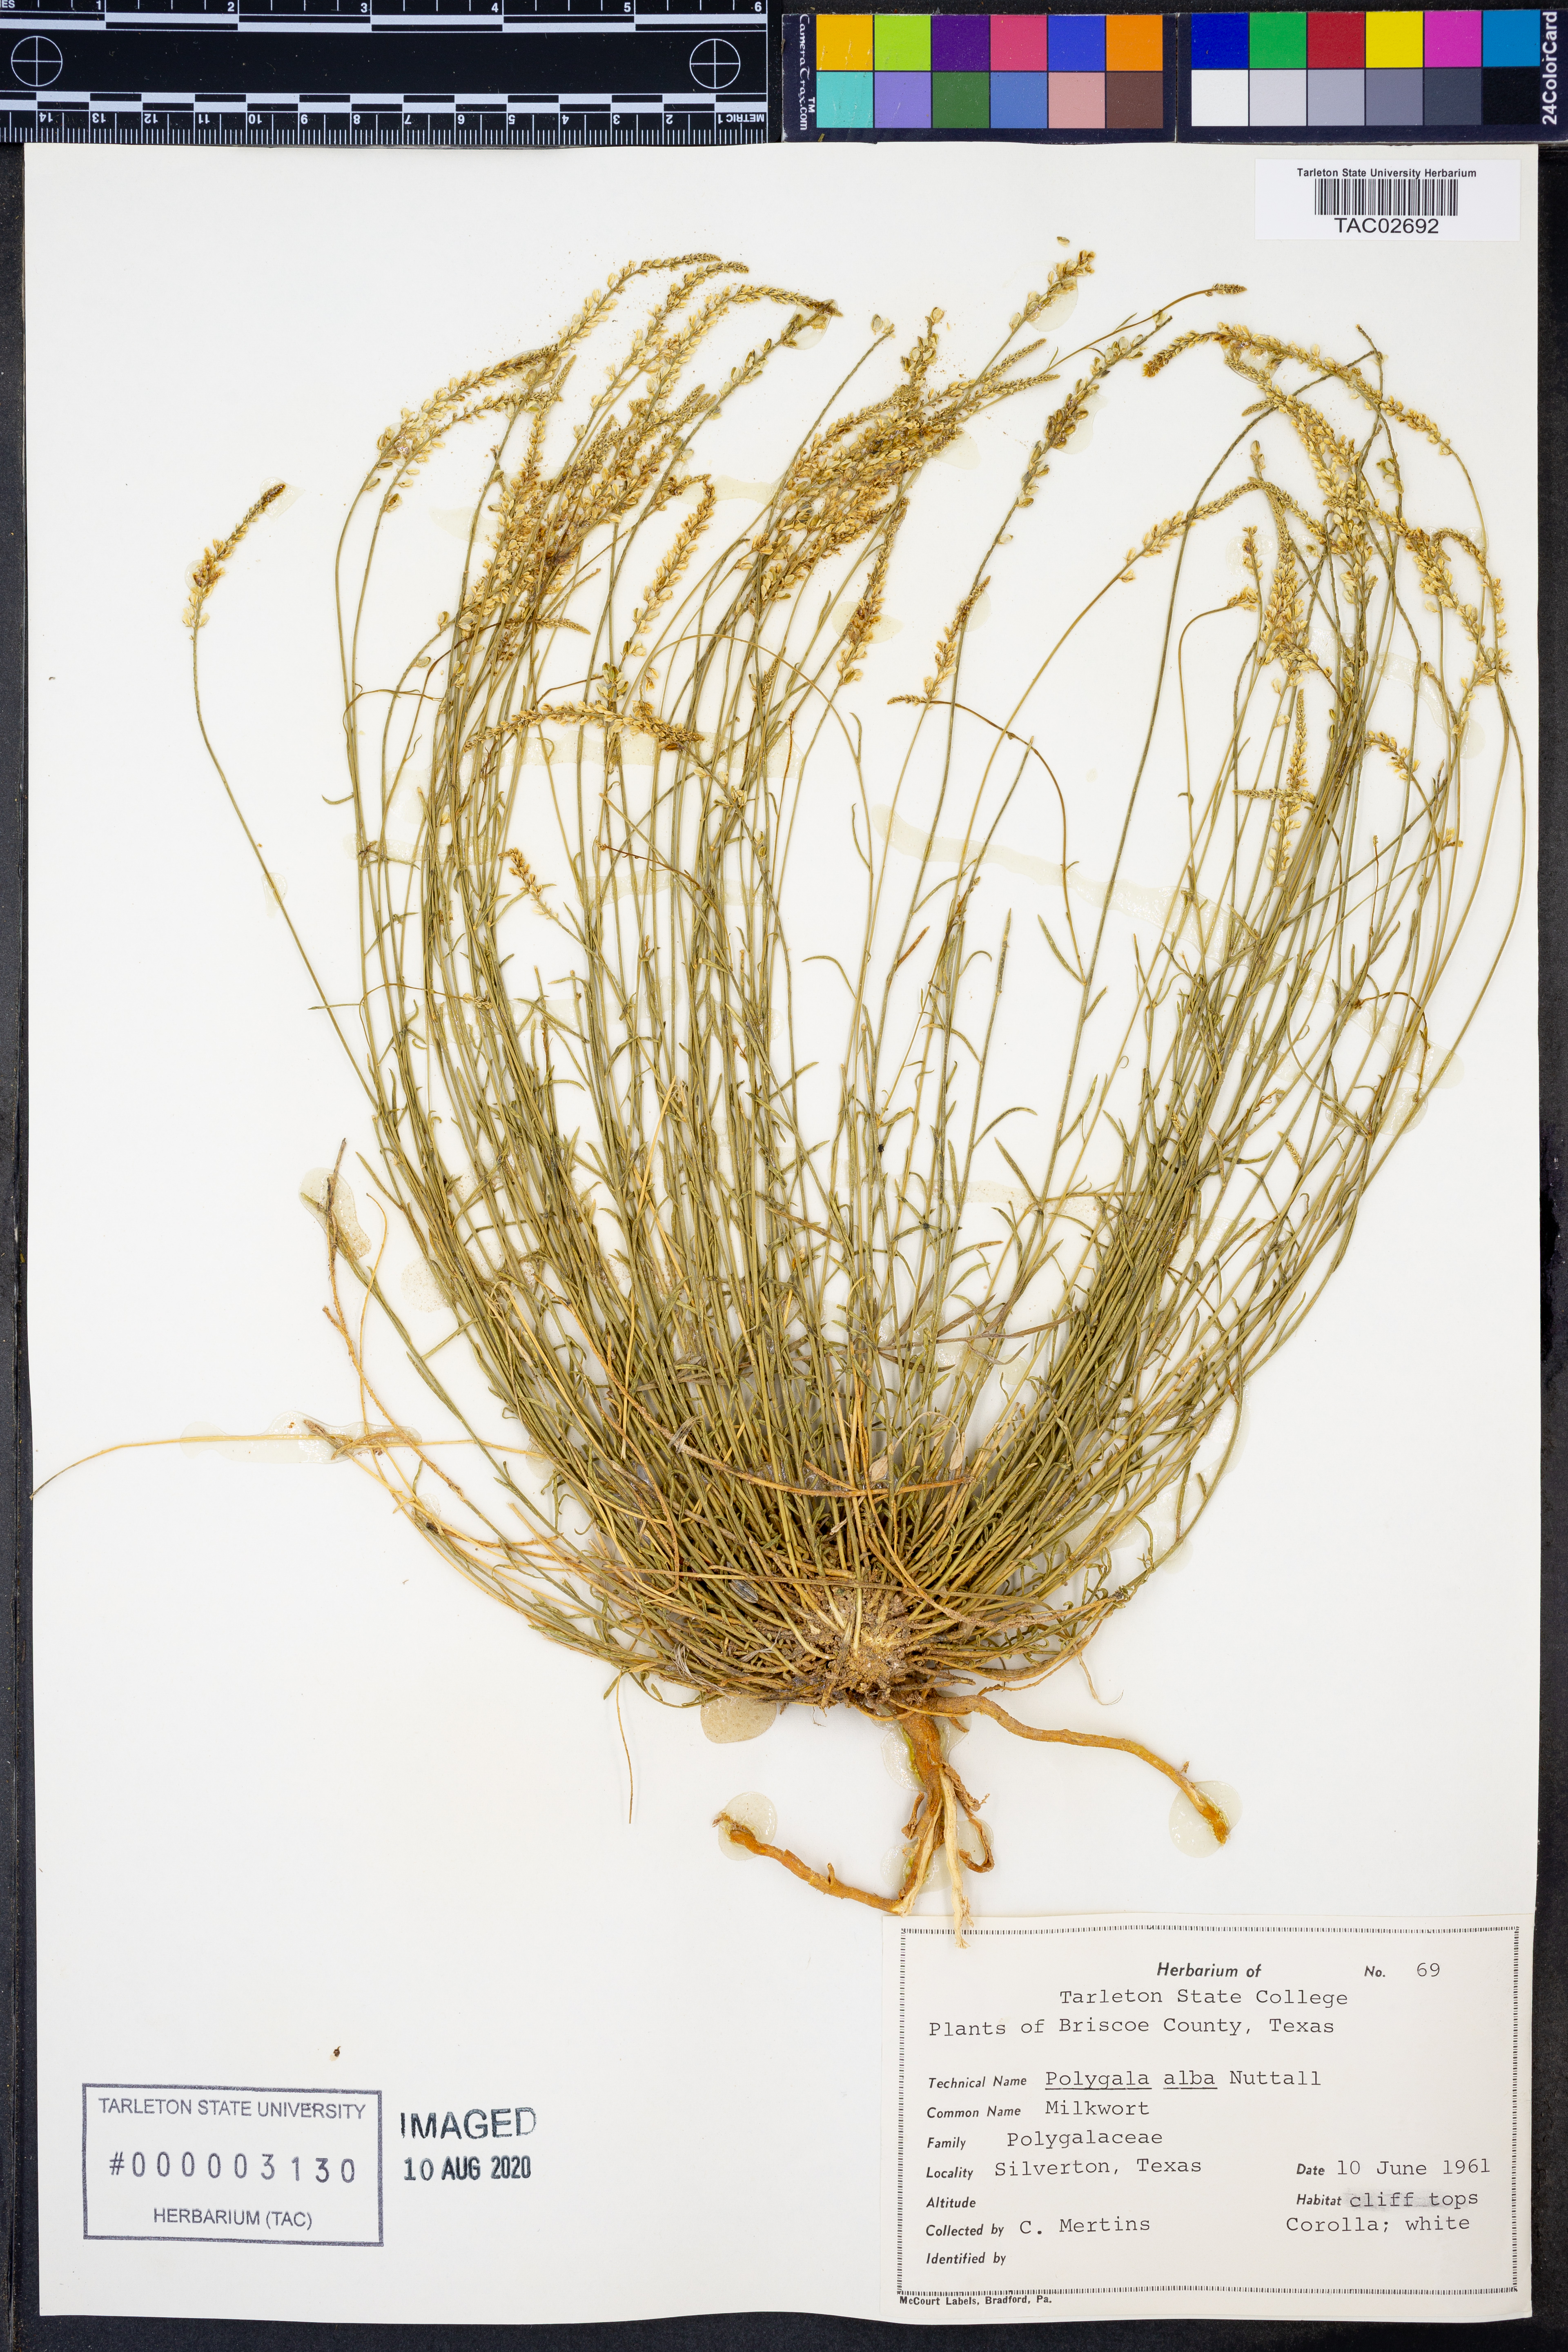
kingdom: Plantae
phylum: Tracheophyta
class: Magnoliopsida
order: Fabales
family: Polygalaceae
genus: Polygala
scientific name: Polygala alba
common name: White milkwort
